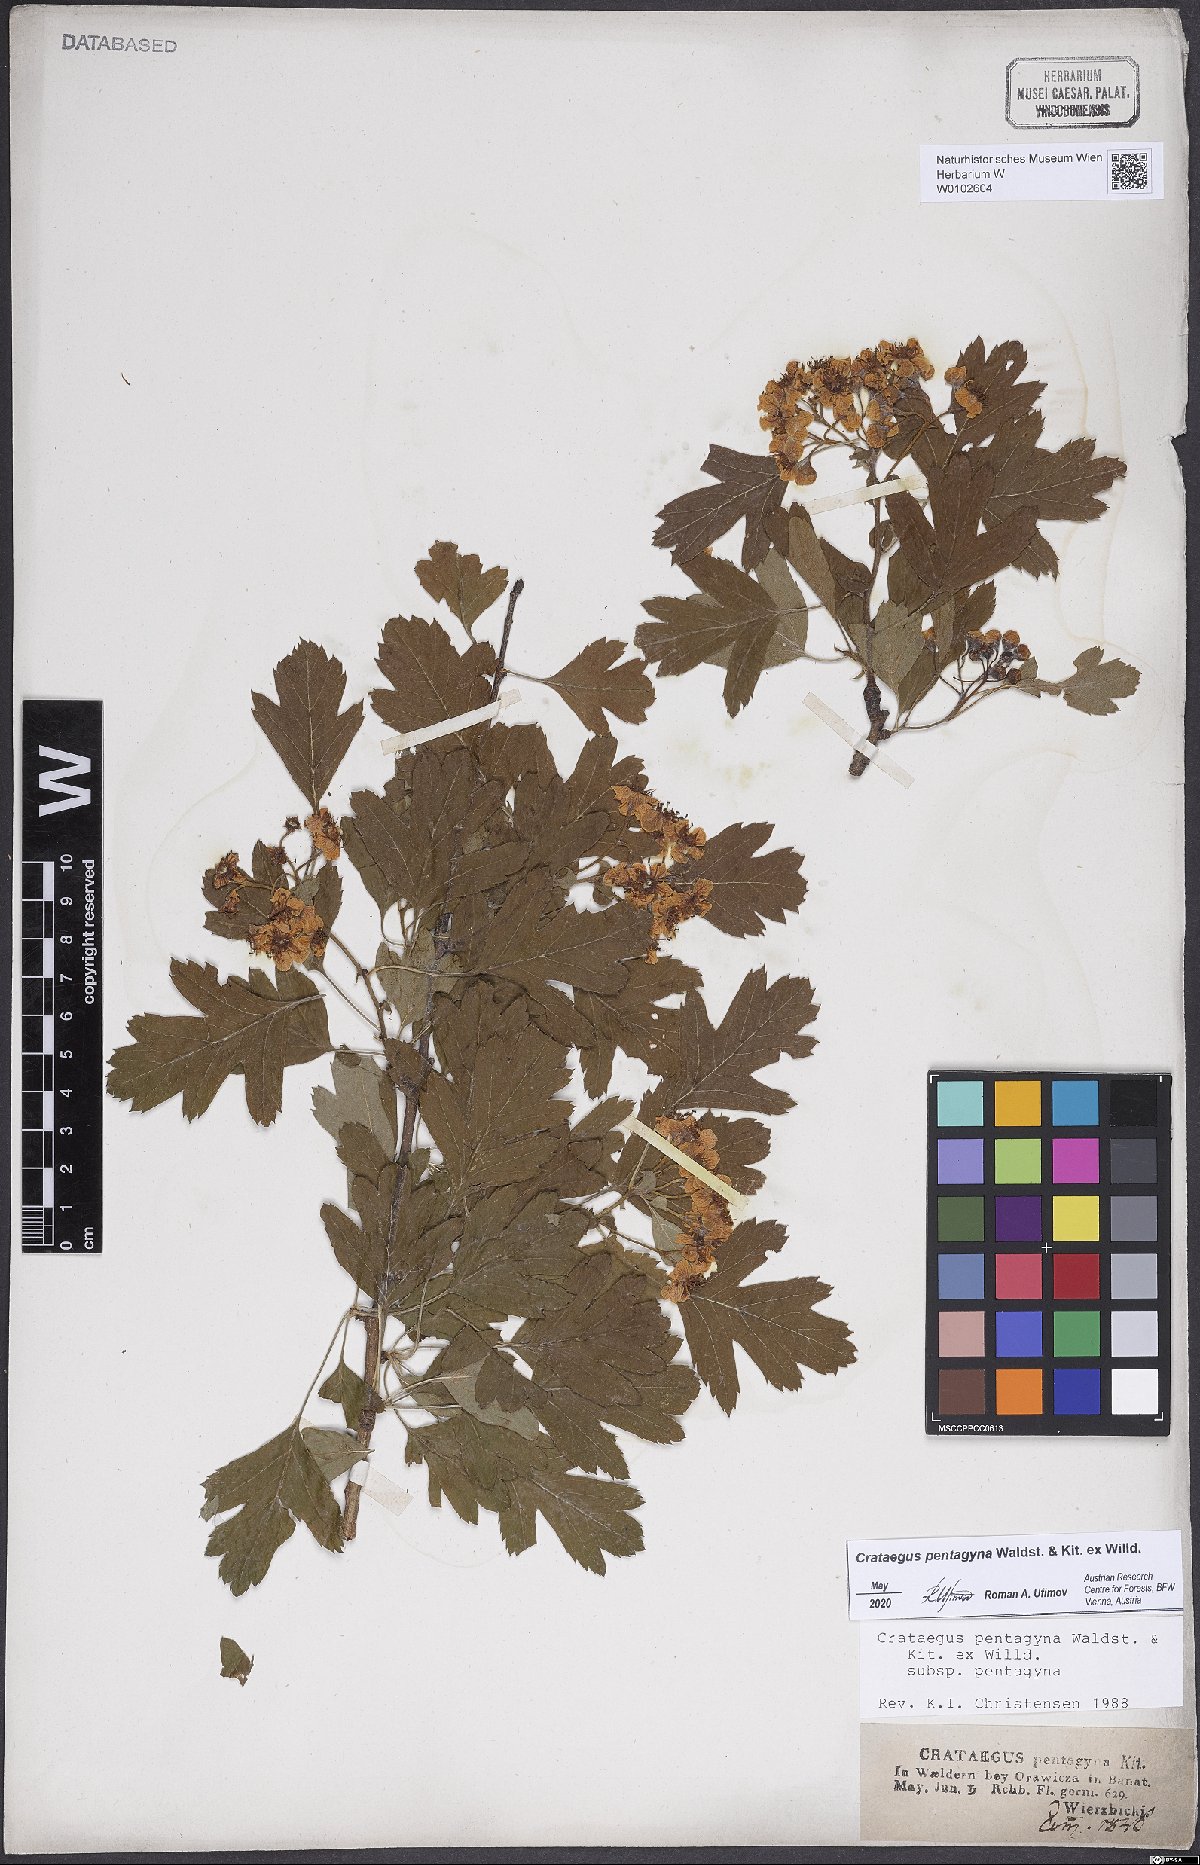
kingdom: Plantae
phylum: Tracheophyta
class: Magnoliopsida
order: Rosales
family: Rosaceae
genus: Crataegus
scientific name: Crataegus pentagyna
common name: Small-flowered black hawthorn
